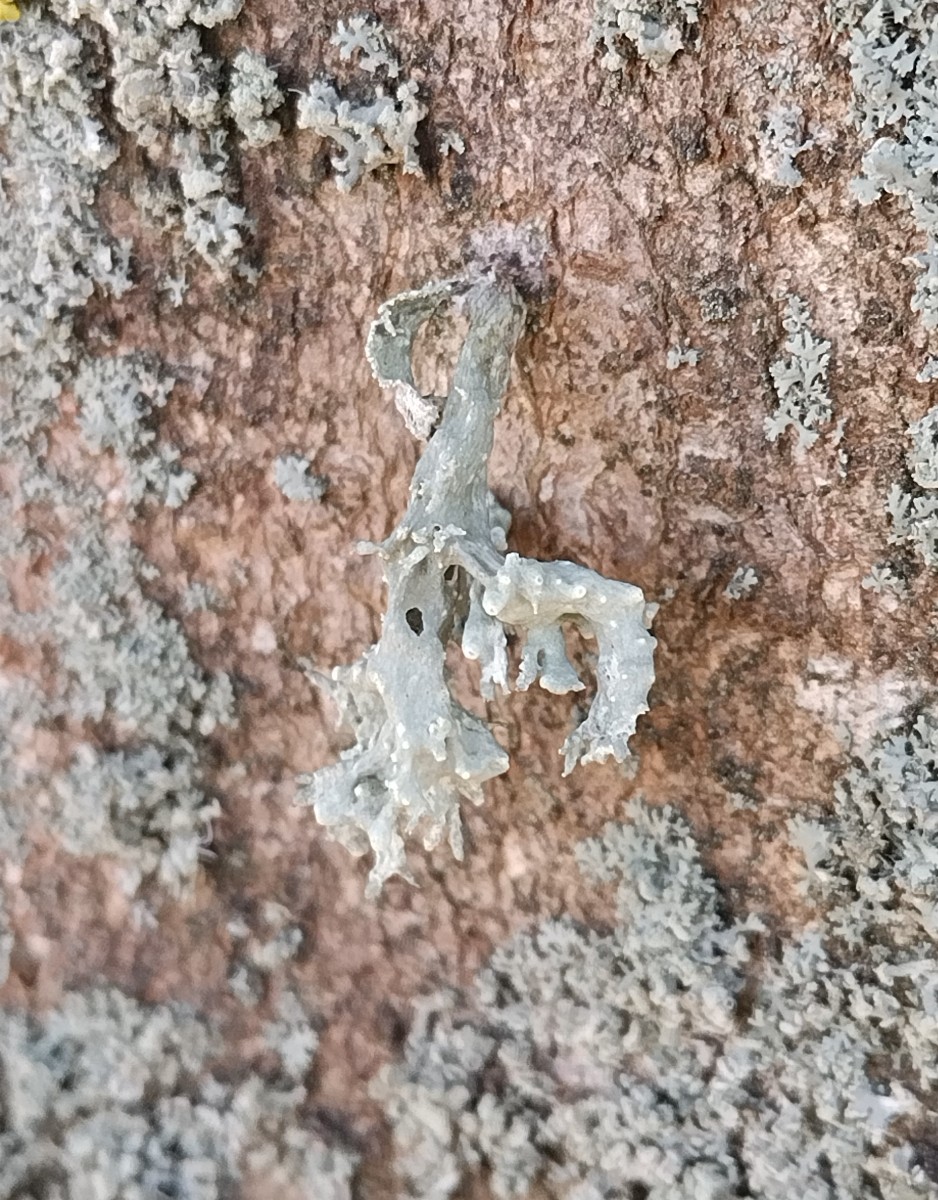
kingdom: Fungi
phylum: Ascomycota
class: Lecanoromycetes
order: Lecanorales
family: Ramalinaceae
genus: Ramalina
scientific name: Ramalina fraxinea
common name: stor grenlav
